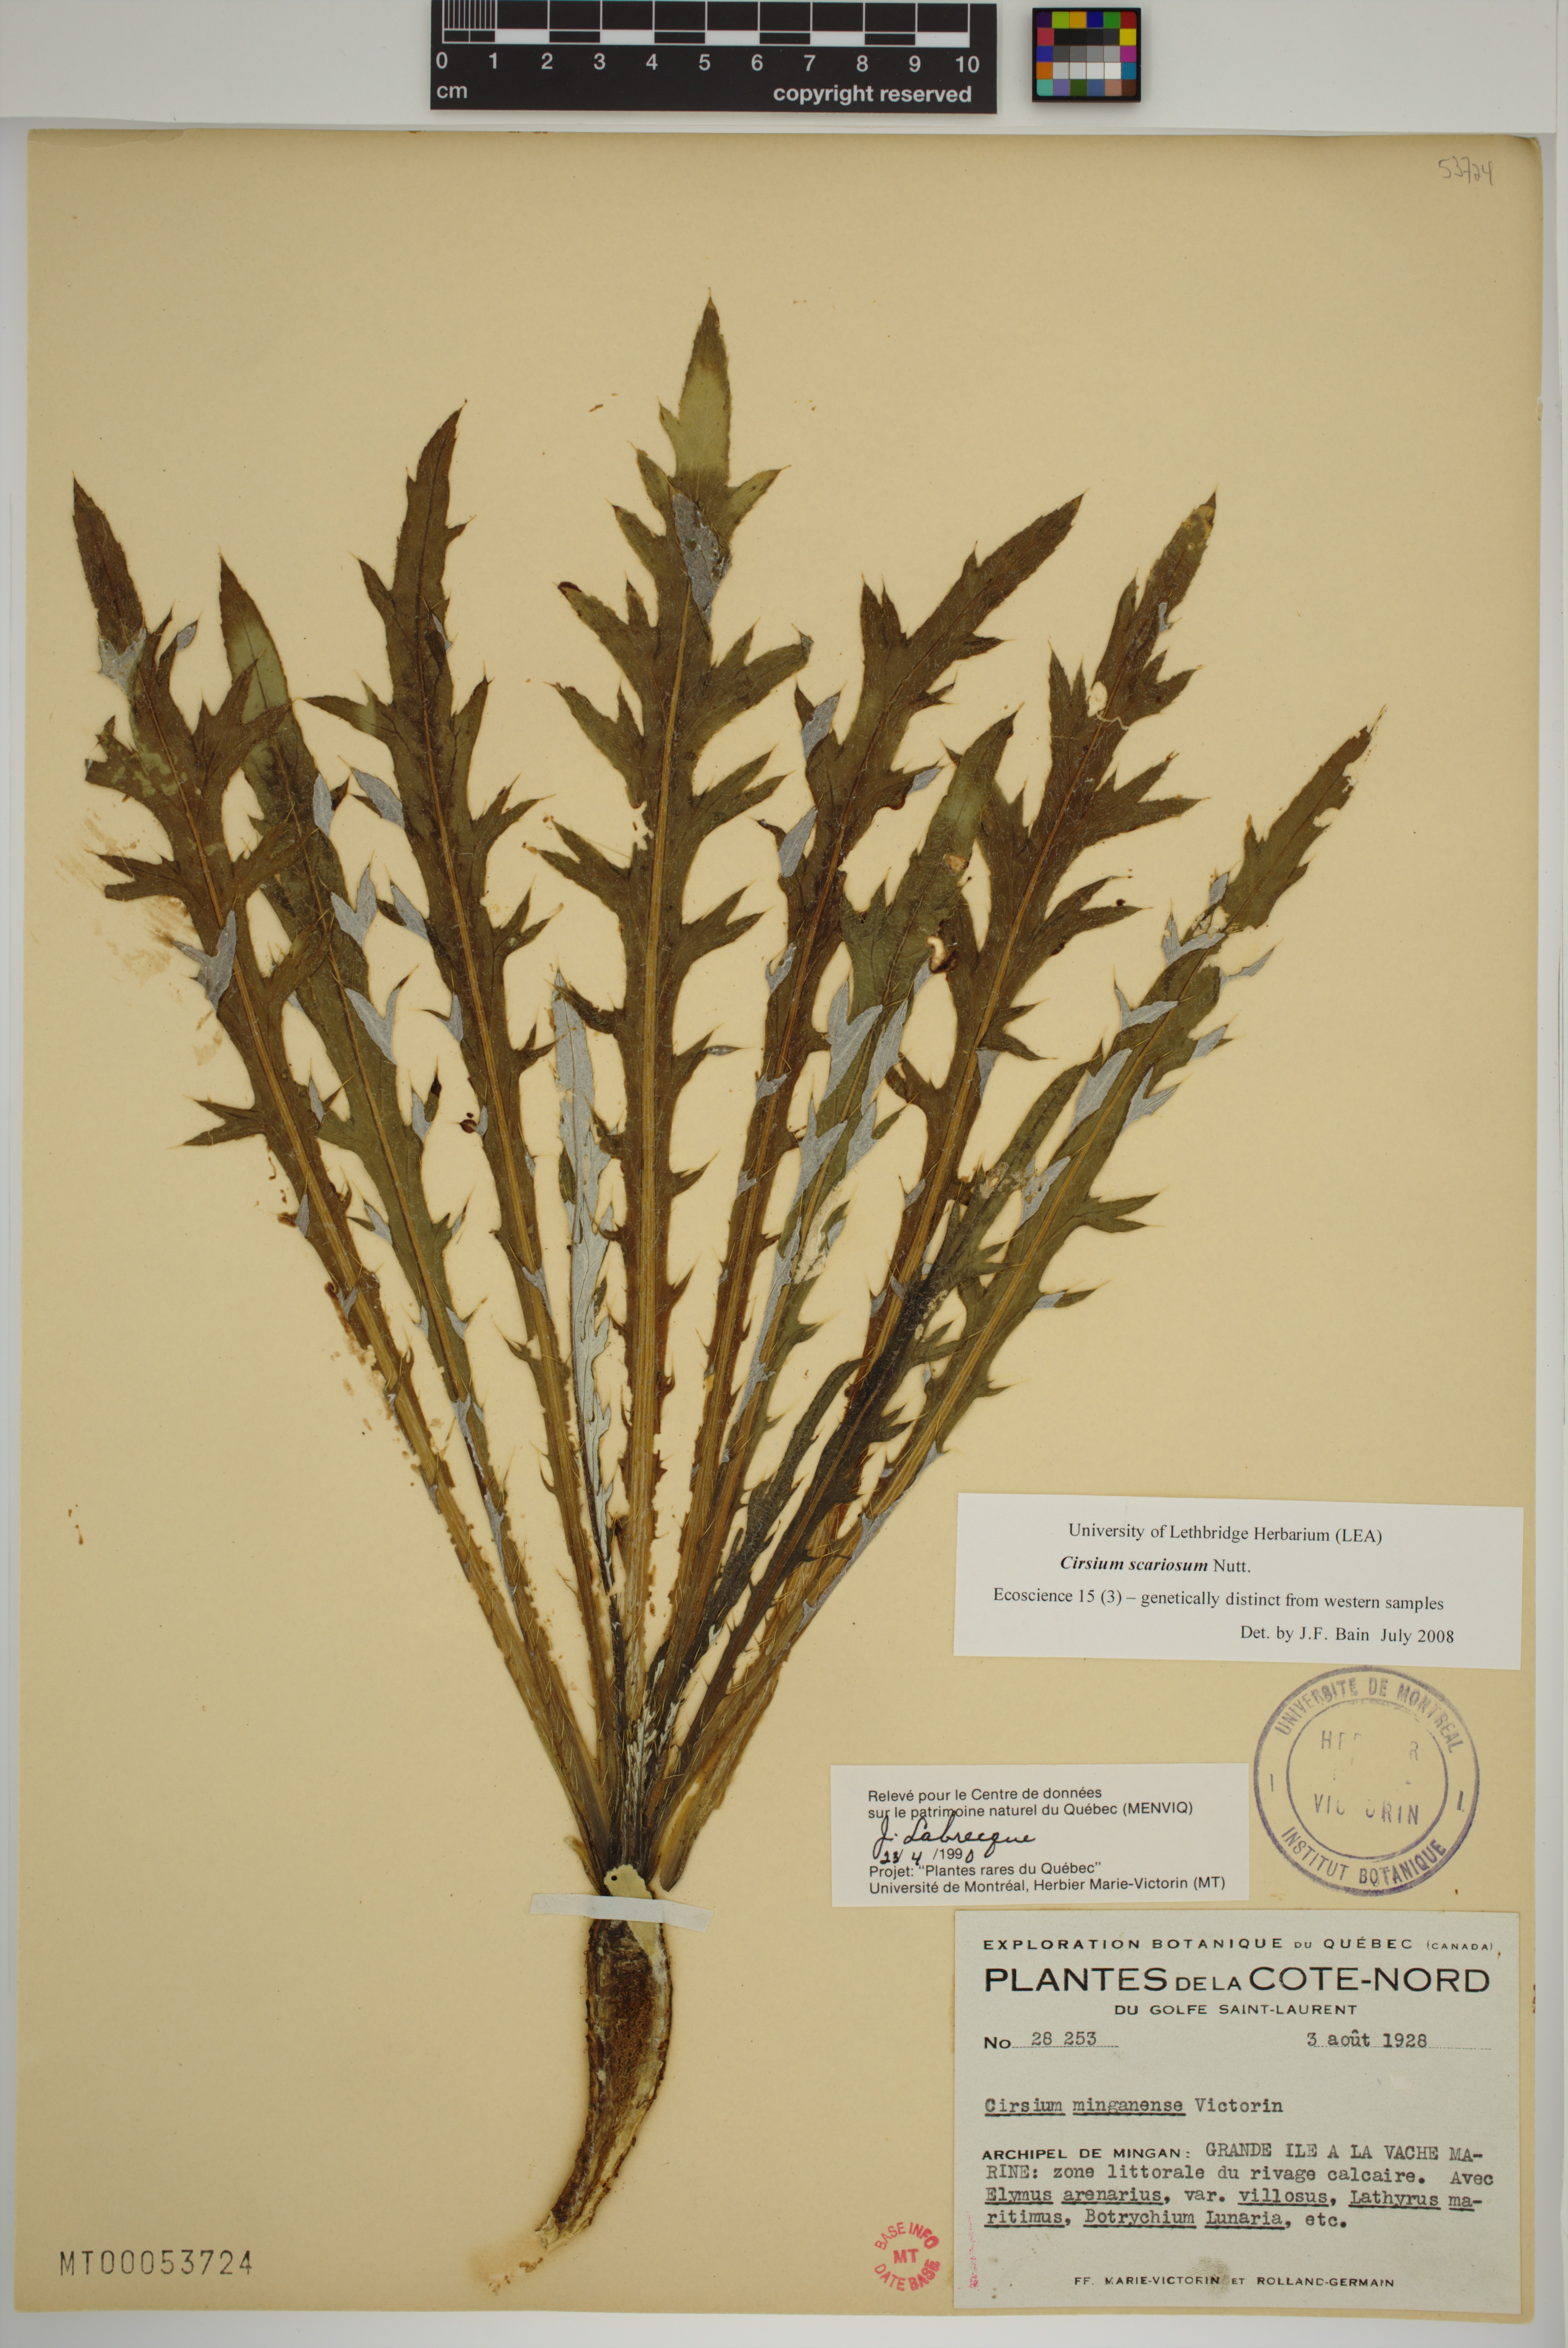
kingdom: Plantae
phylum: Tracheophyta
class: Magnoliopsida
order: Asterales
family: Asteraceae
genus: Cirsium
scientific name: Cirsium scariosum
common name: Meadow thistle
